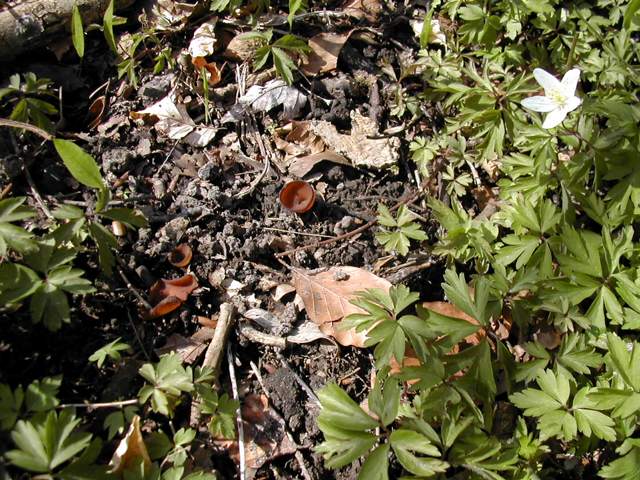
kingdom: Fungi
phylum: Ascomycota
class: Leotiomycetes
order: Helotiales
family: Sclerotiniaceae
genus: Dumontinia
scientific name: Dumontinia tuberosa
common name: anemone-knoldskive
